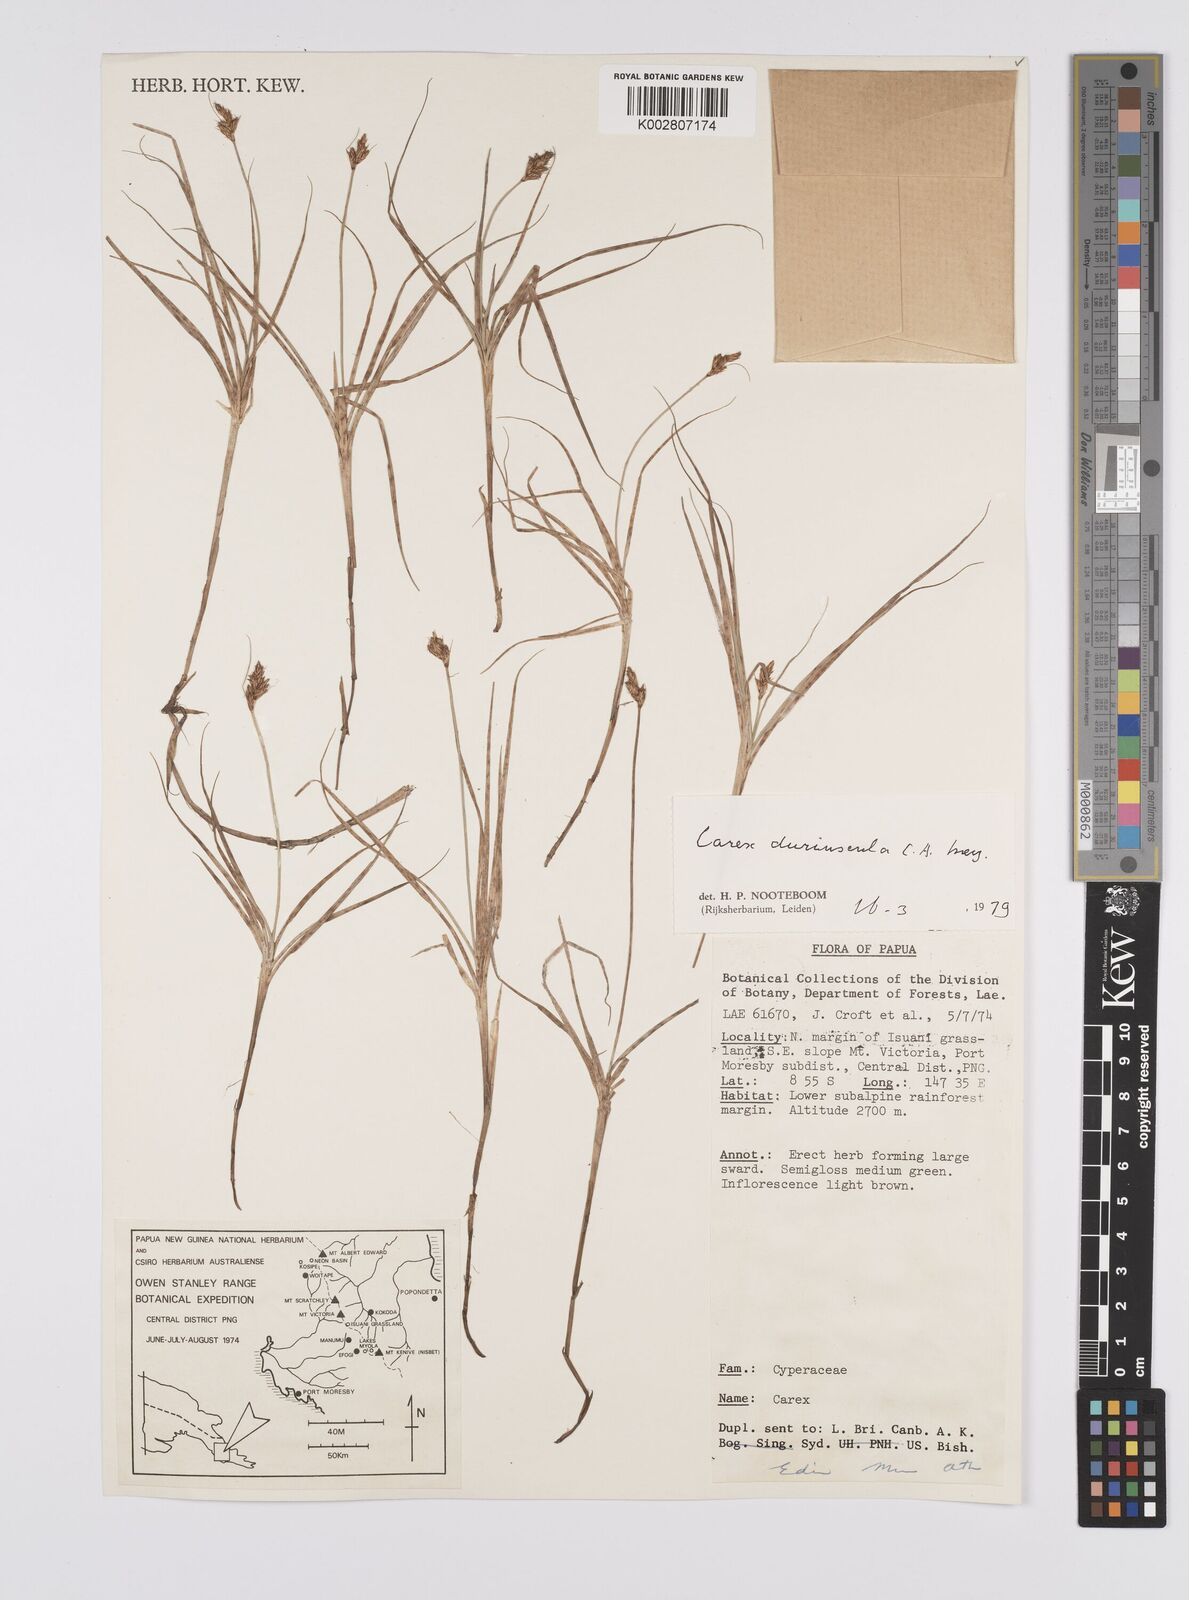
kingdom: Plantae
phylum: Tracheophyta
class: Liliopsida
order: Poales
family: Cyperaceae
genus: Carex
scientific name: Carex duriuscula
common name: Involute-leaved sedge
